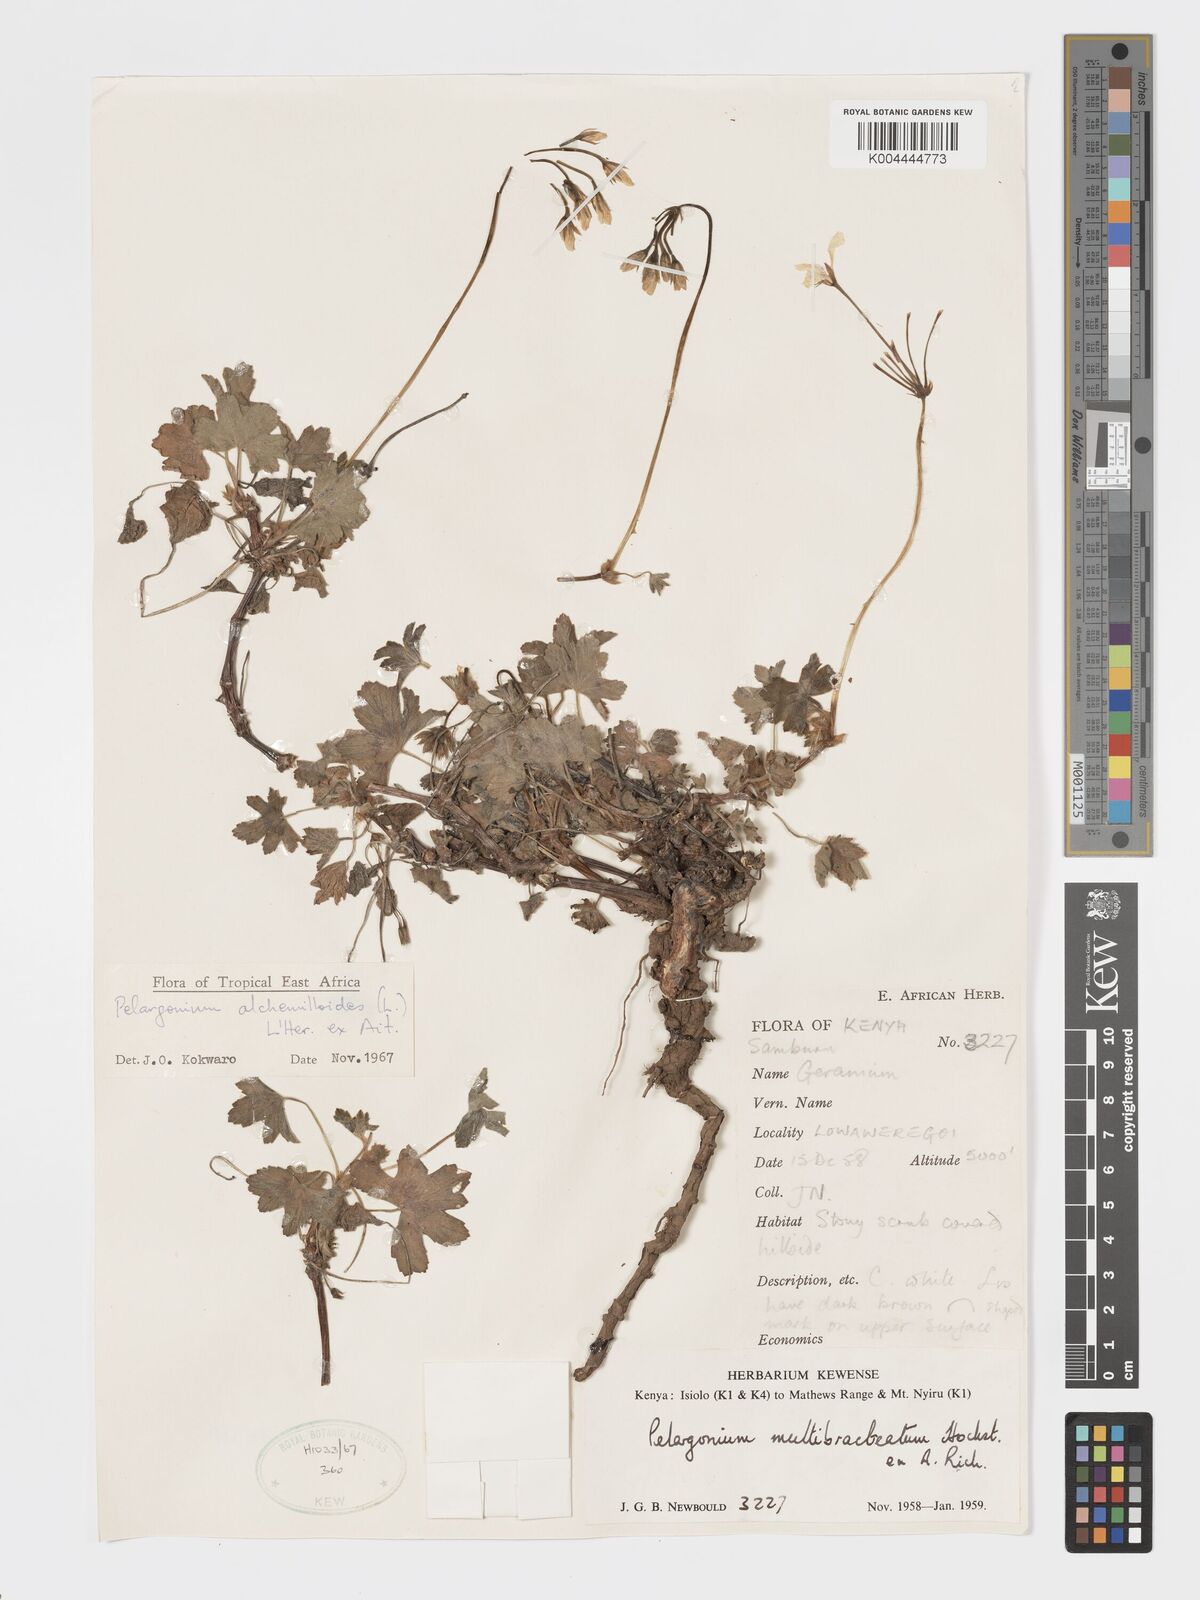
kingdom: Plantae
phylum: Tracheophyta
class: Magnoliopsida
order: Geraniales
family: Geraniaceae
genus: Pelargonium
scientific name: Pelargonium alchemilloides
